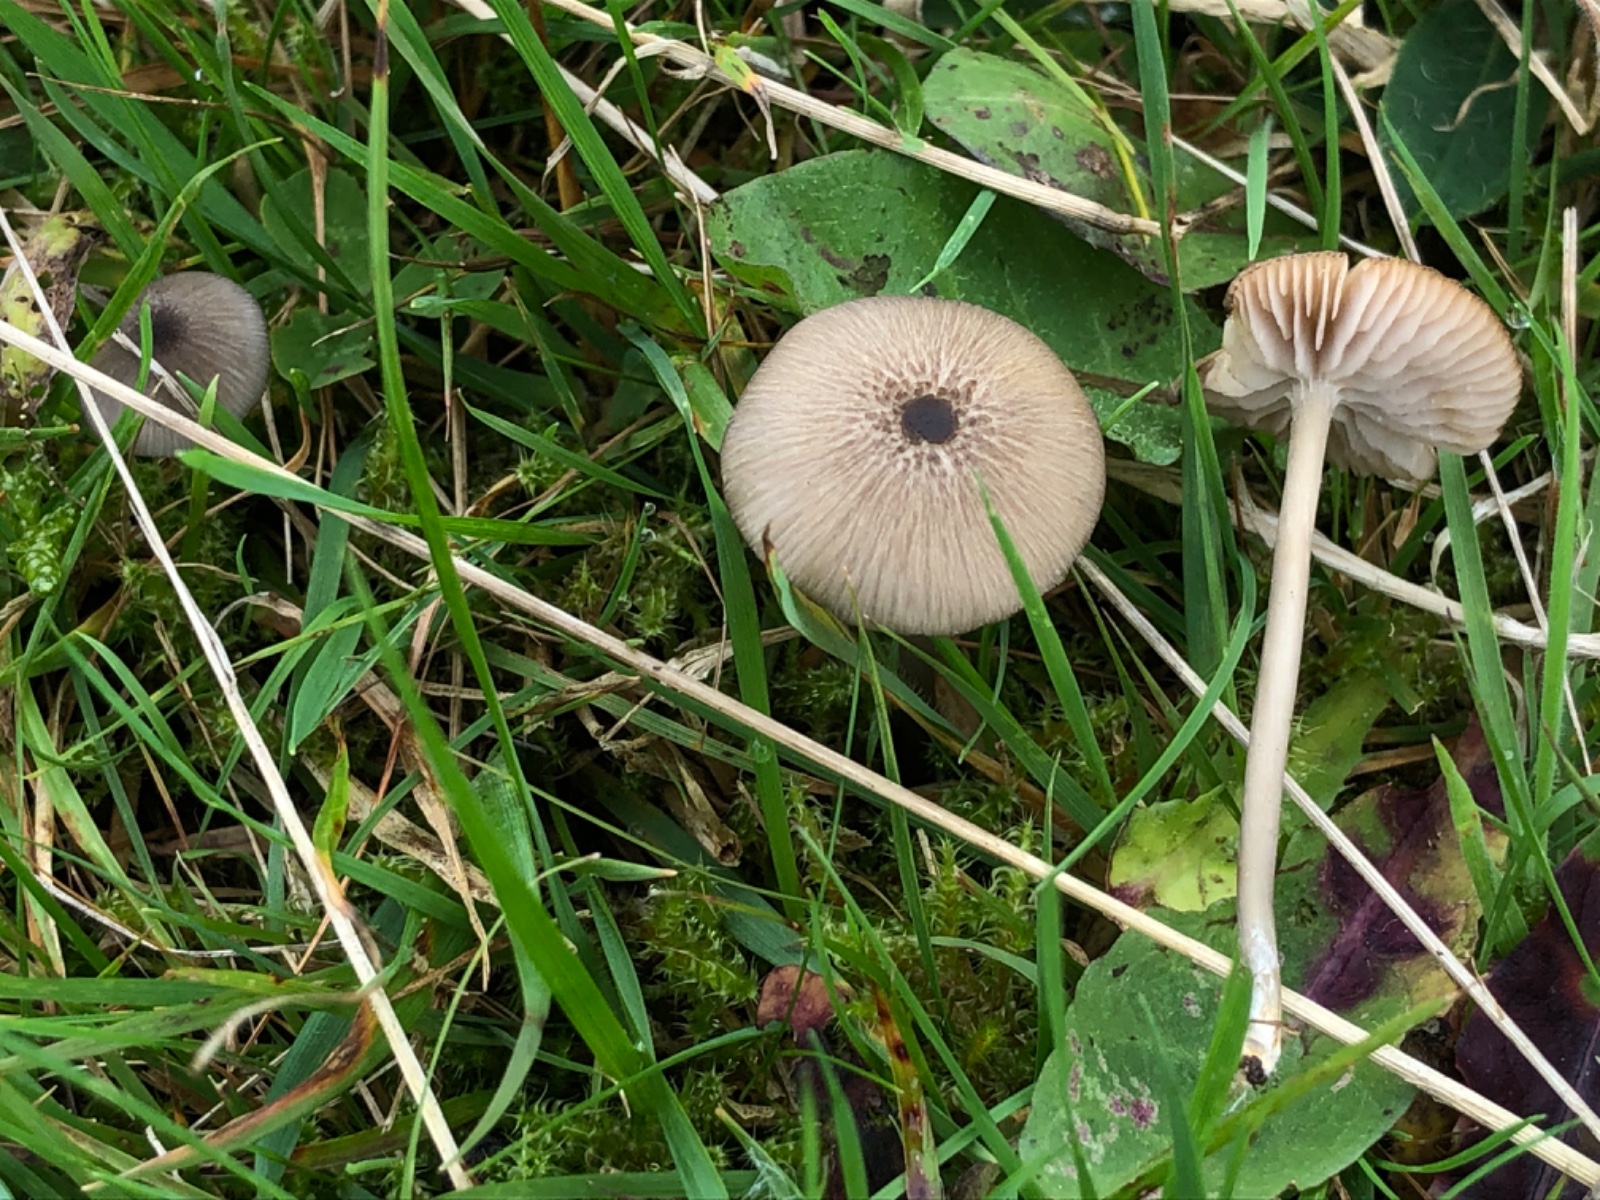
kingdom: Fungi
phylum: Basidiomycota
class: Agaricomycetes
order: Agaricales
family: Entolomataceae
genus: Entoloma
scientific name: Entoloma exile
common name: rødplettet rødblad
